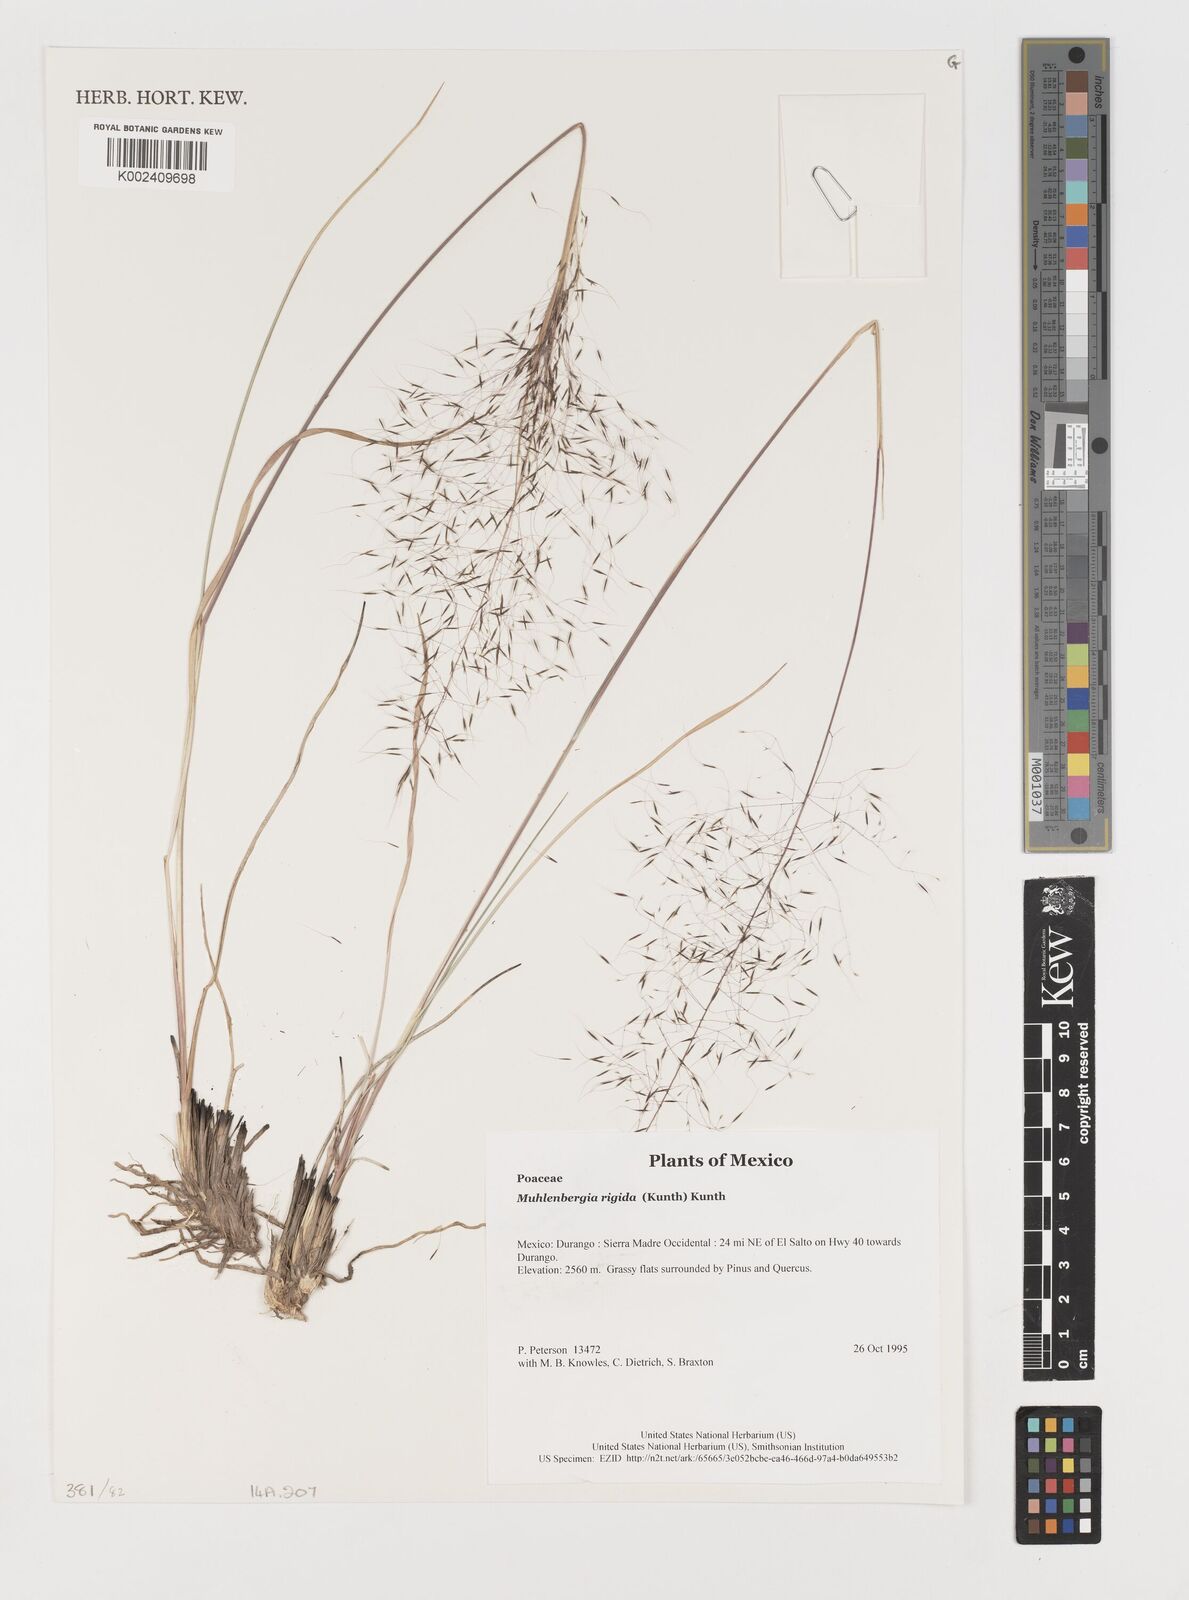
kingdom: Plantae
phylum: Tracheophyta
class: Liliopsida
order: Poales
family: Poaceae
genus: Muhlenbergia
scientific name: Muhlenbergia rigida
